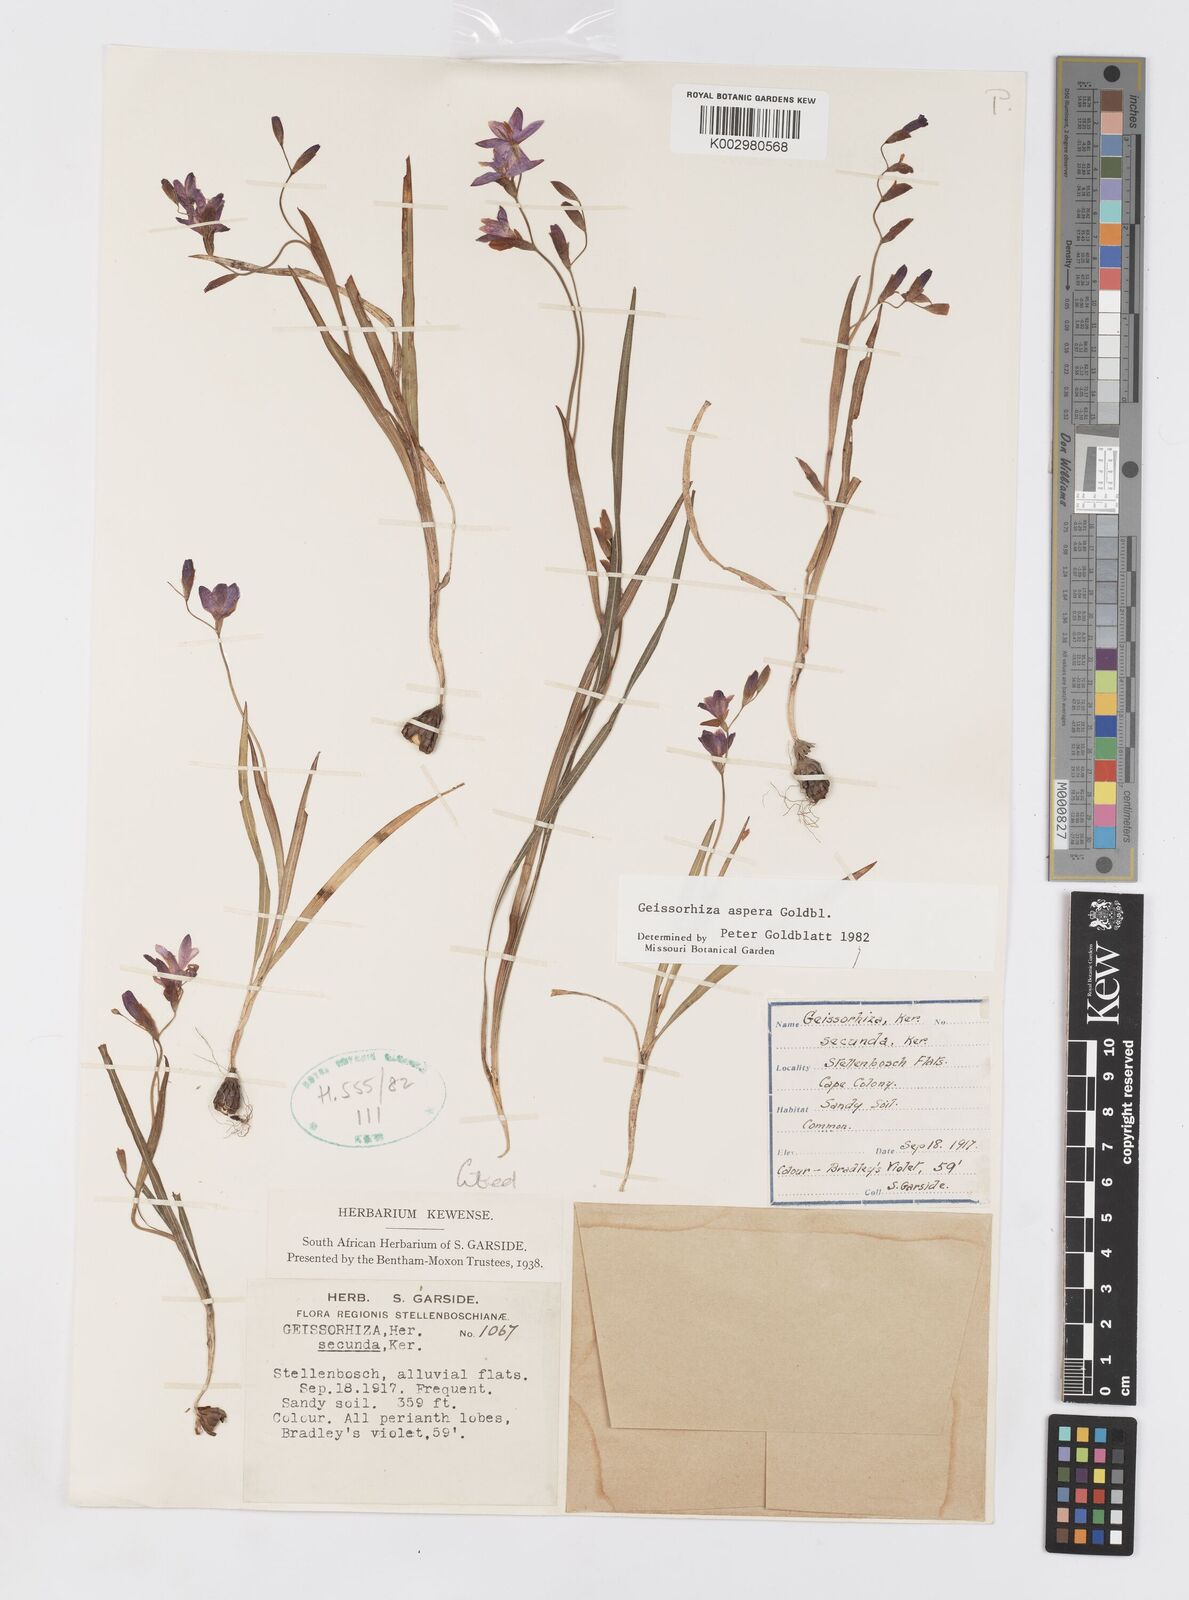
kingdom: Plantae
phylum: Tracheophyta
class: Liliopsida
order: Asparagales
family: Iridaceae
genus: Geissorhiza
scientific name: Geissorhiza aspera
